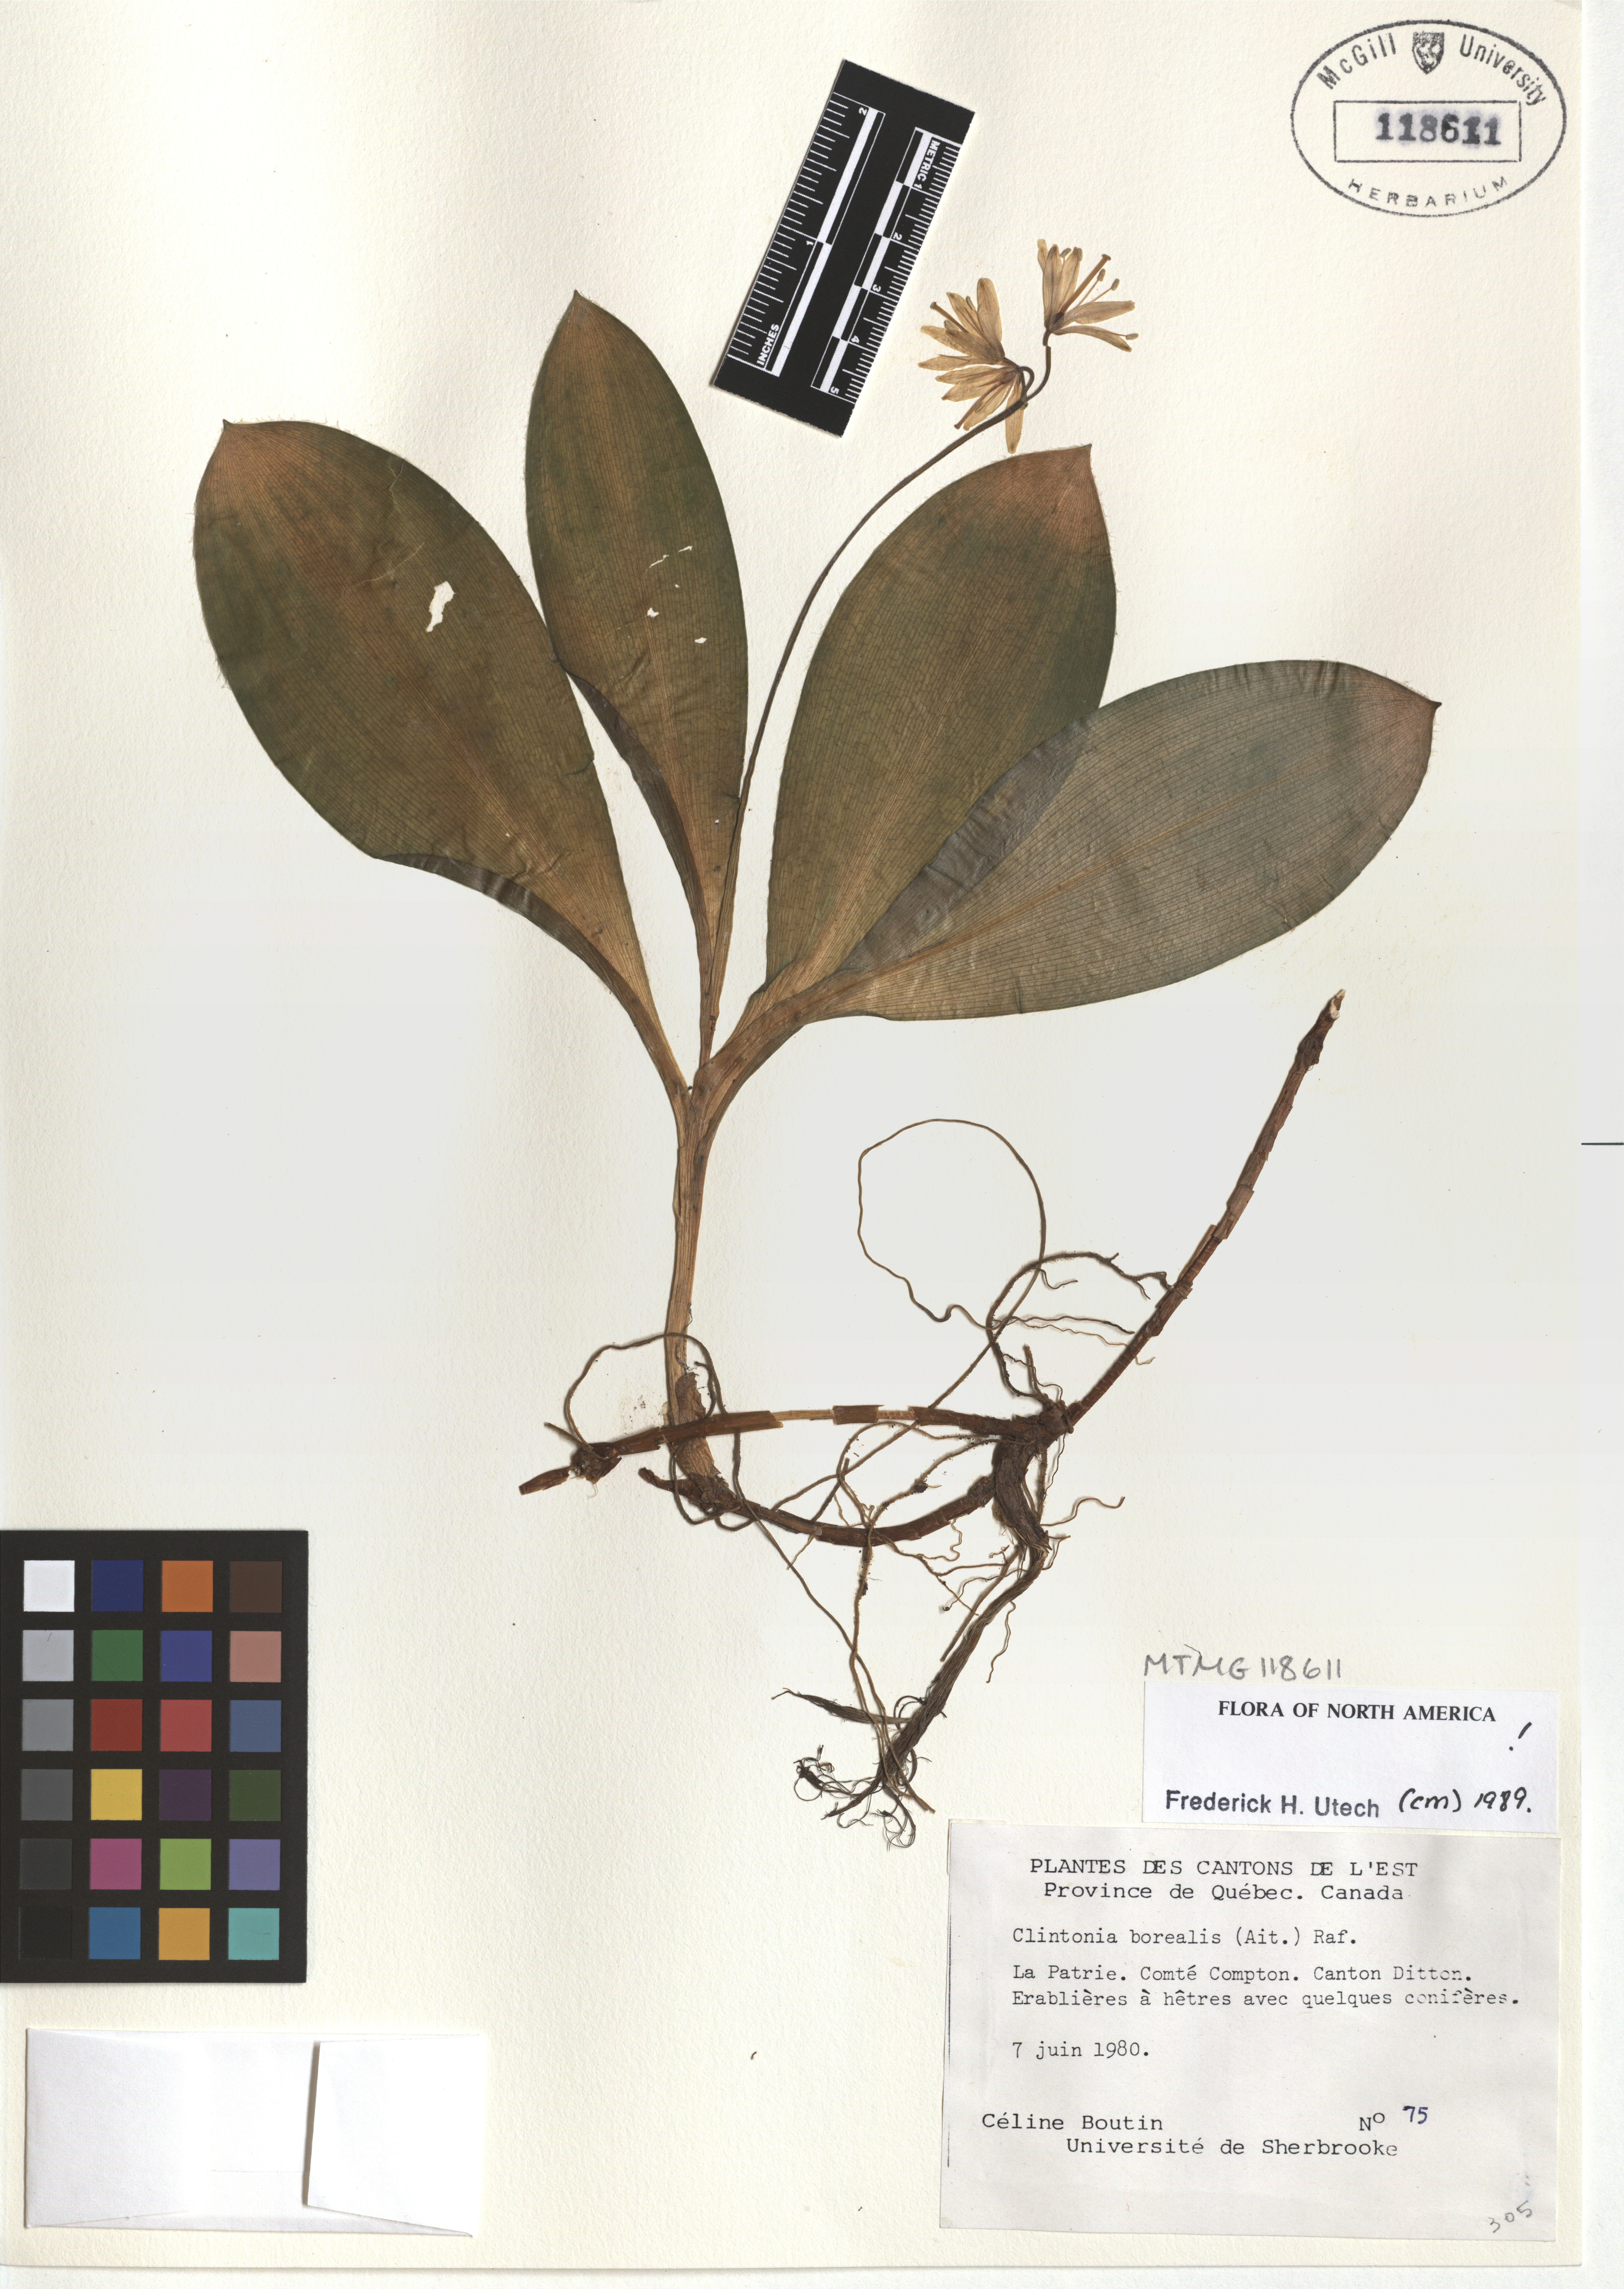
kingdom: Plantae
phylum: Tracheophyta
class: Liliopsida
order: Liliales
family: Liliaceae
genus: Clintonia
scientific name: Clintonia borealis
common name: Yellow clintonia
